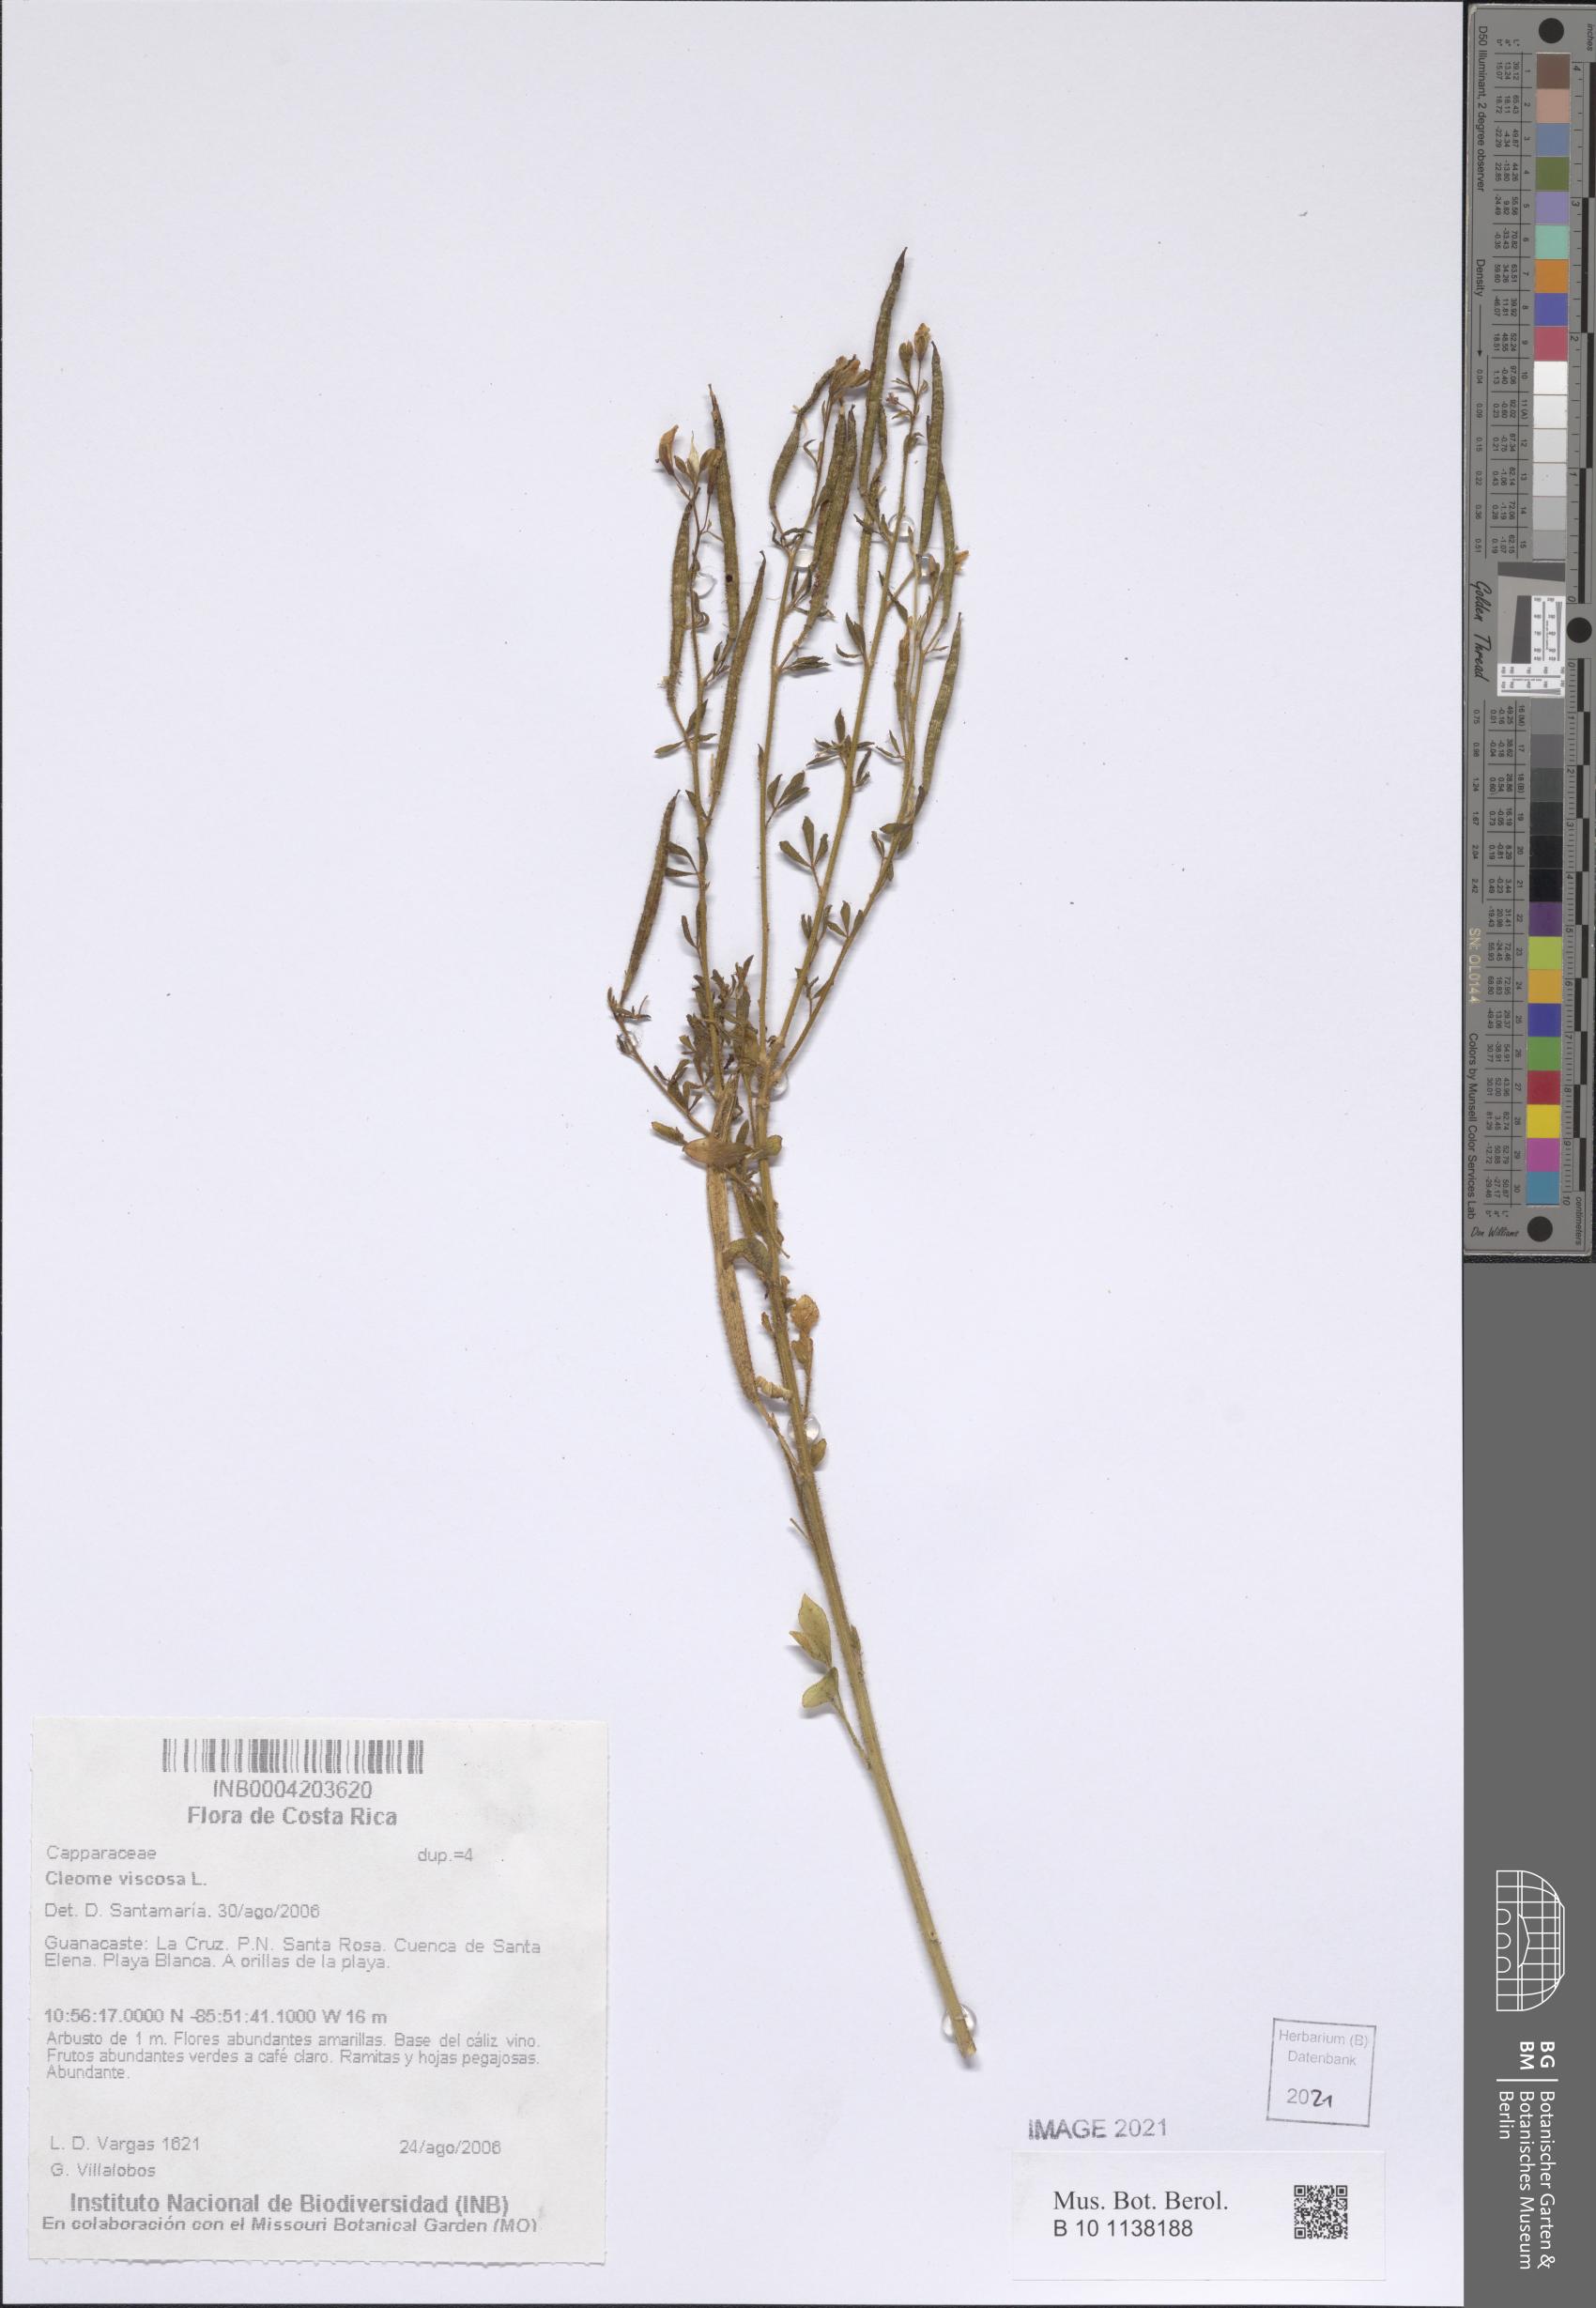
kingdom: Plantae
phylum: Tracheophyta
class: Magnoliopsida
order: Brassicales
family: Cleomaceae
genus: Arivela
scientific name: Arivela viscosa
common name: Asian spiderflower
